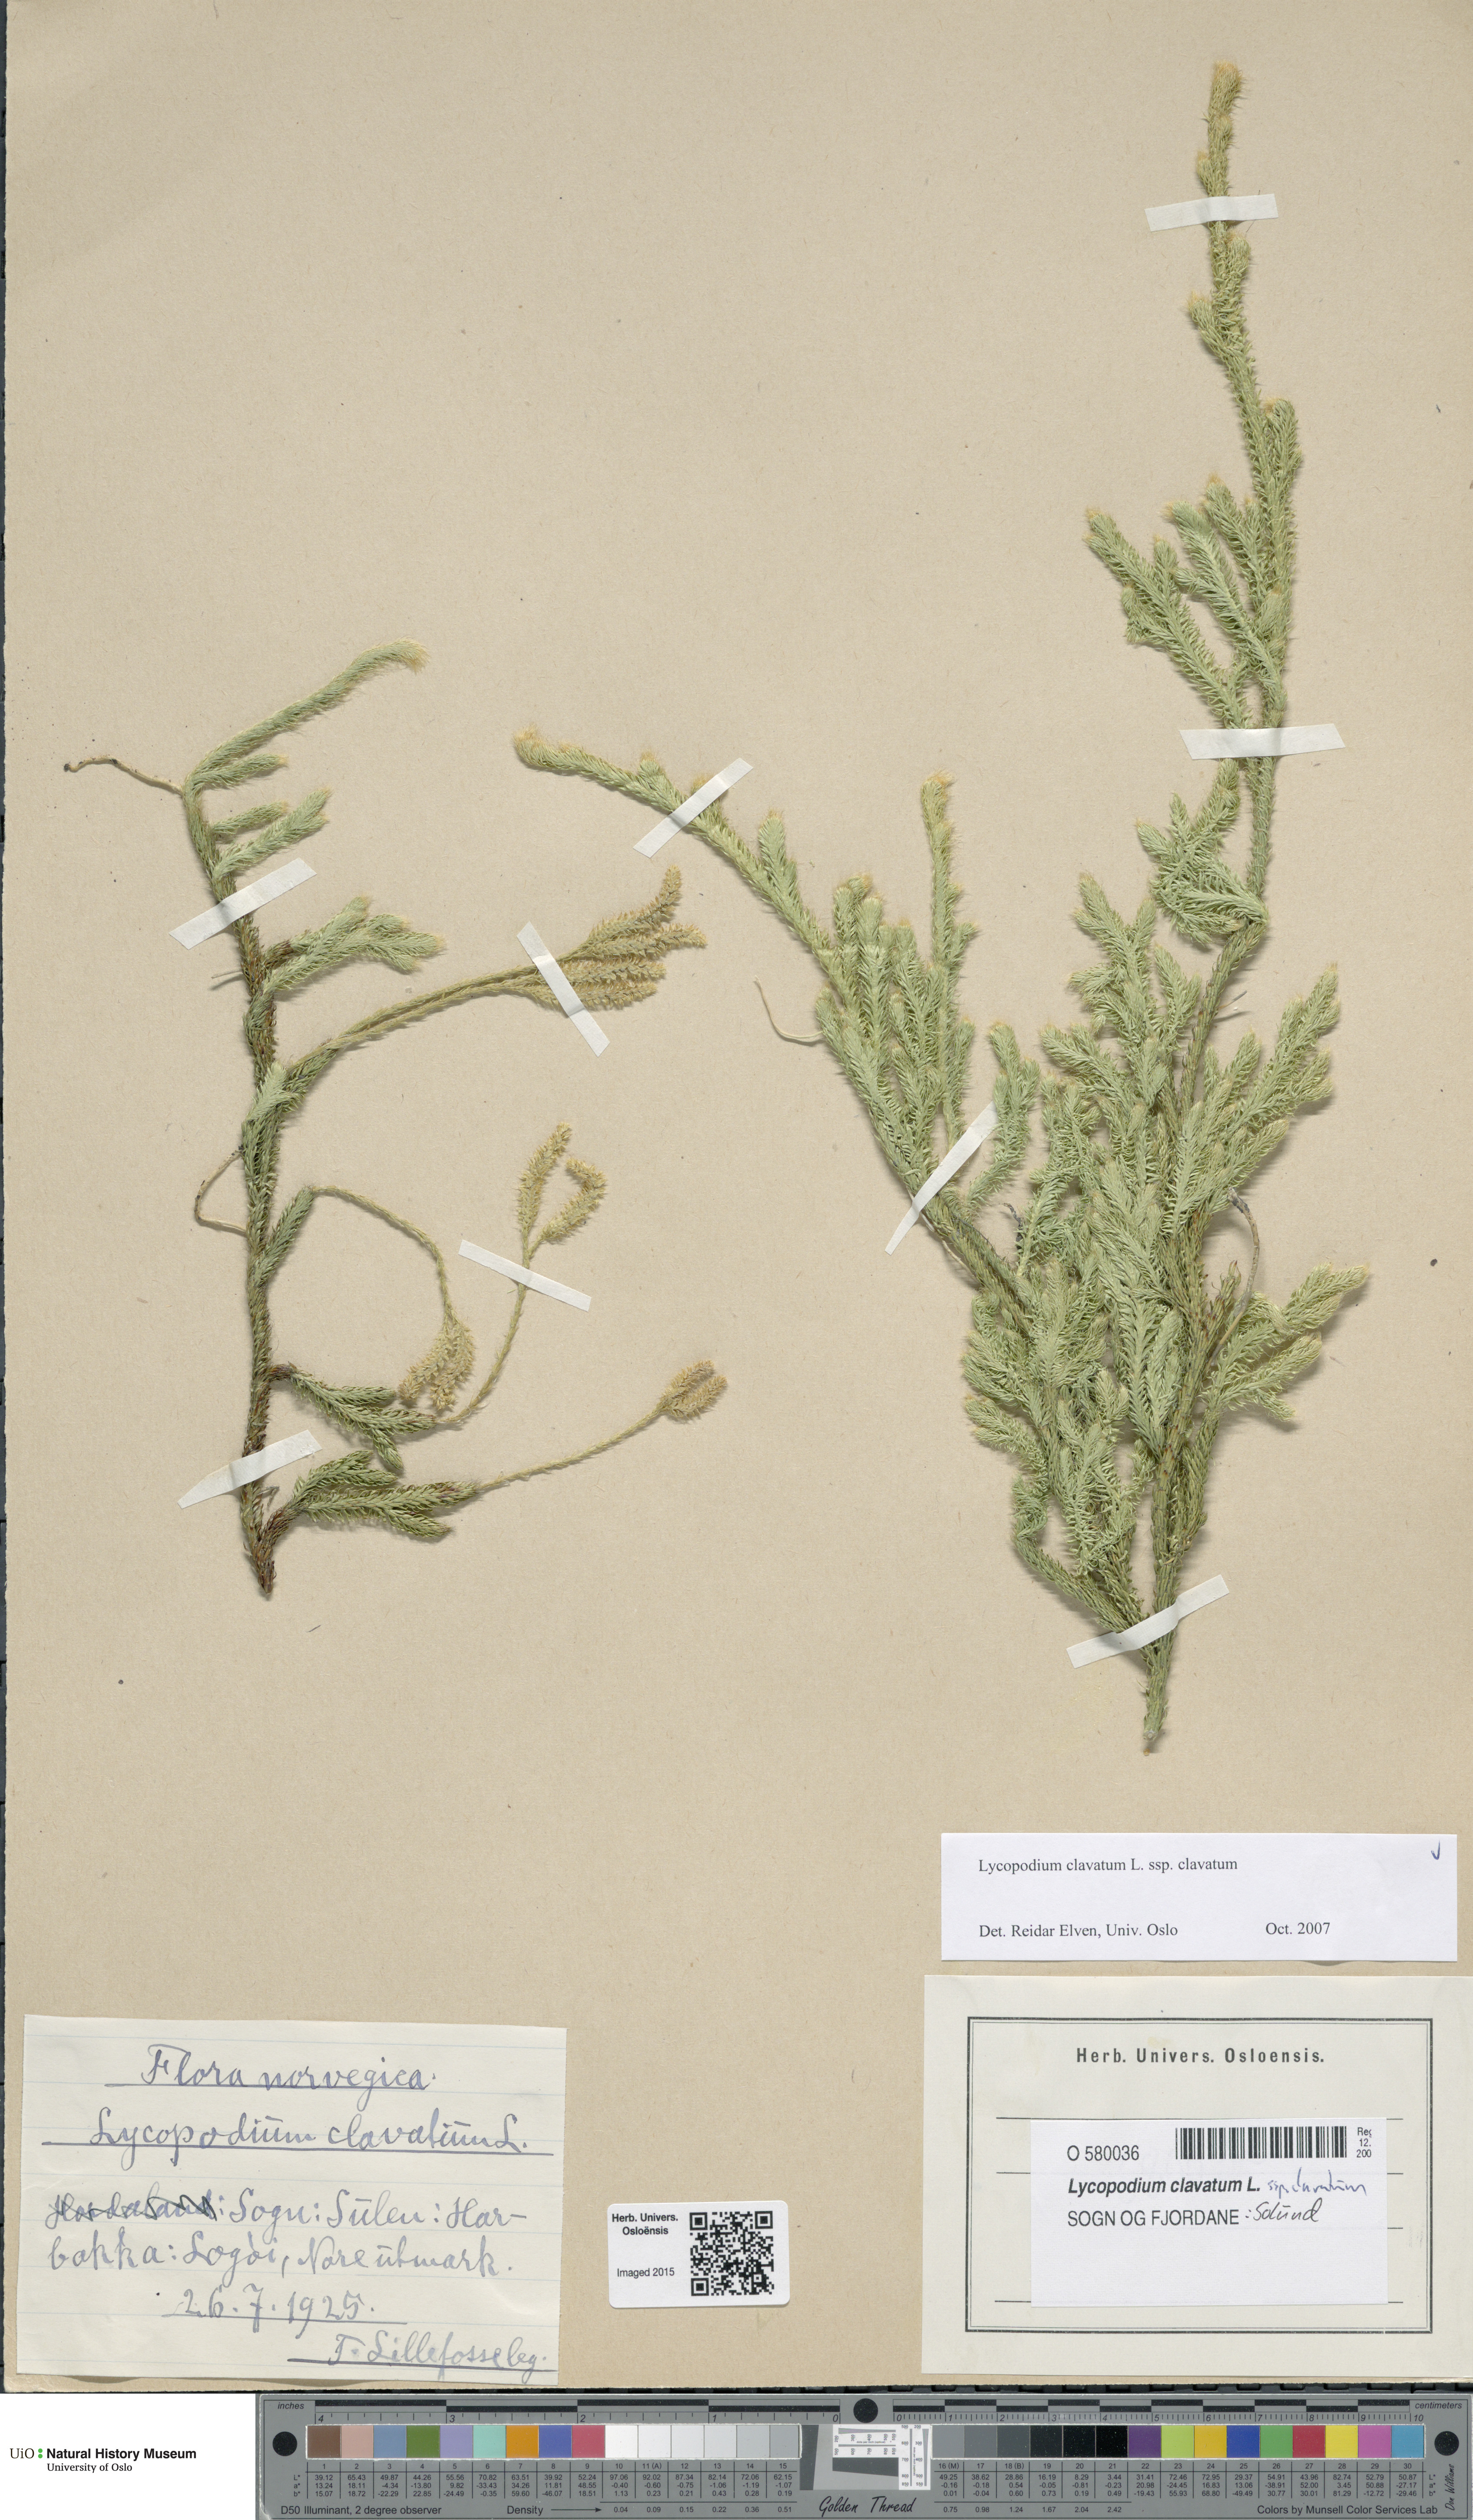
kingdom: Plantae
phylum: Tracheophyta
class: Lycopodiopsida
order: Lycopodiales
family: Lycopodiaceae
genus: Lycopodium
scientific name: Lycopodium clavatum
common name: Stag's-horn clubmoss
